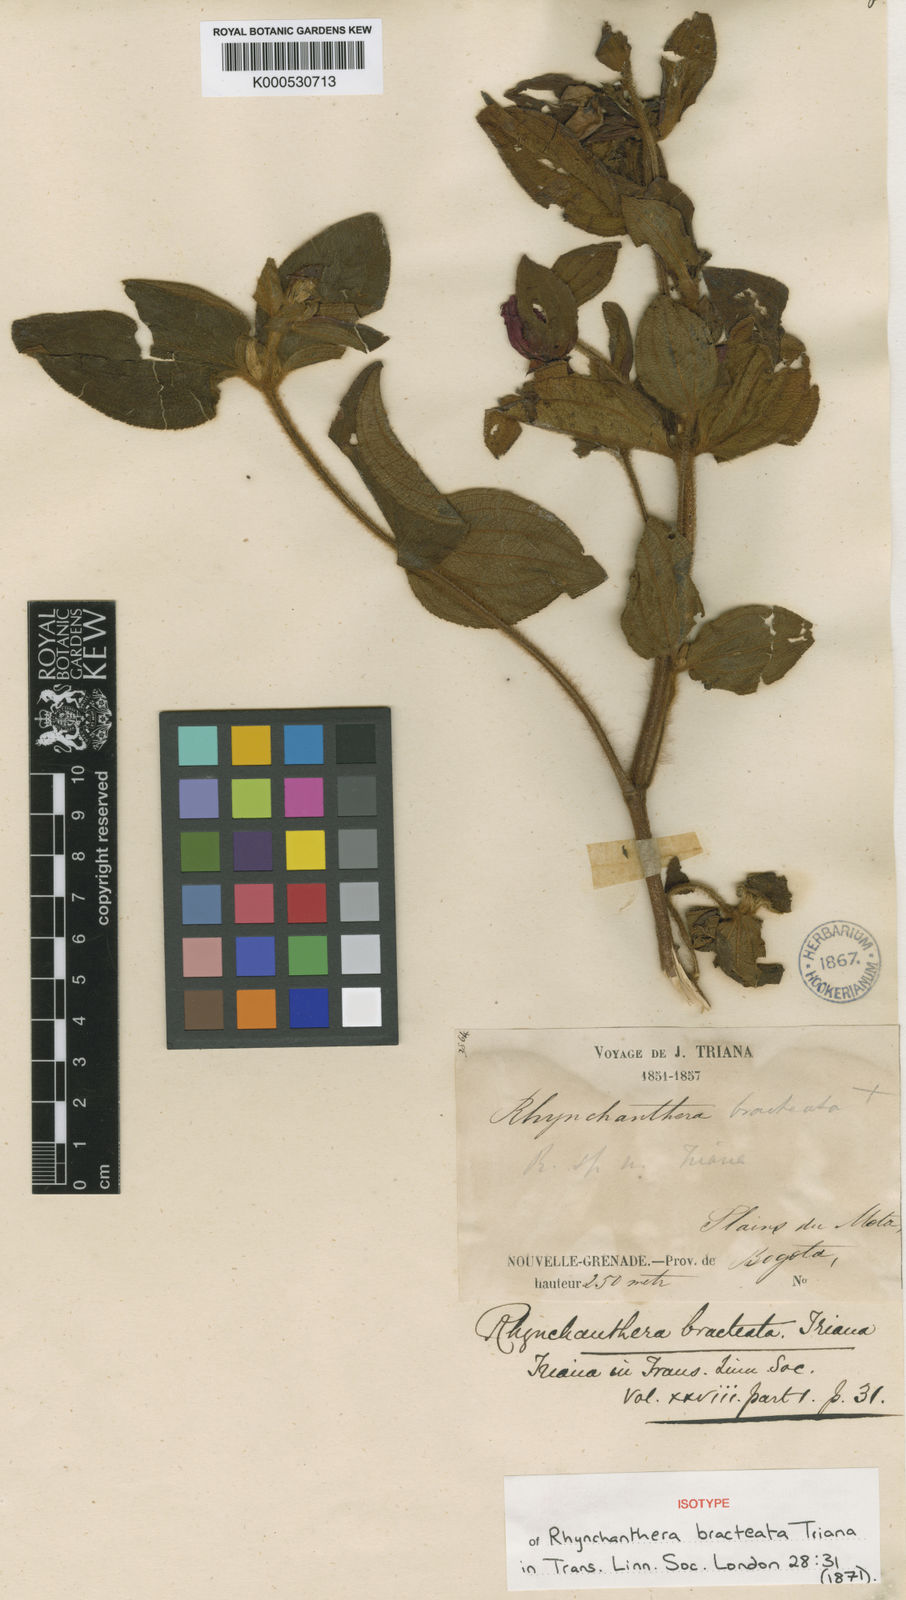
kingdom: Plantae
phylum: Tracheophyta
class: Magnoliopsida
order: Myrtales
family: Melastomataceae
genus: Rhynchanthera
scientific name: Rhynchanthera bracteata
